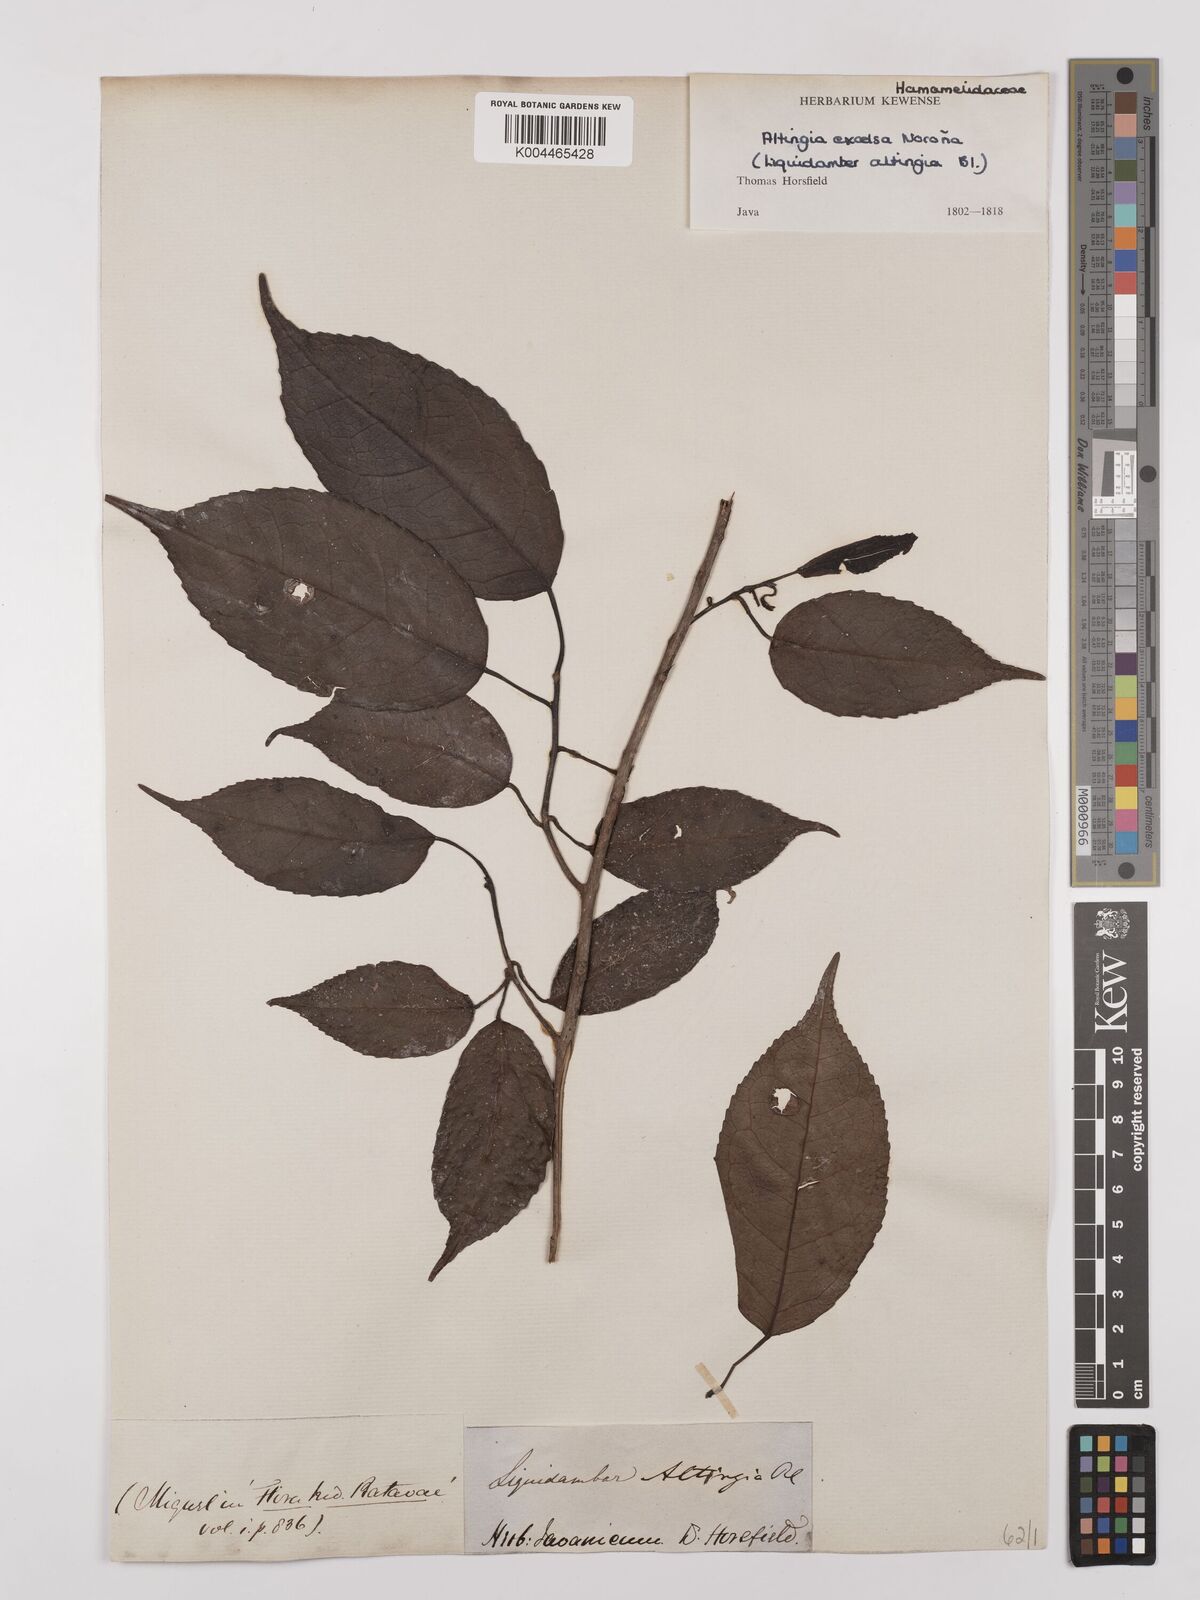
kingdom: Plantae
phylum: Tracheophyta
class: Magnoliopsida
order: Saxifragales
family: Altingiaceae
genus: Liquidambar
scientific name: Liquidambar excelsa
